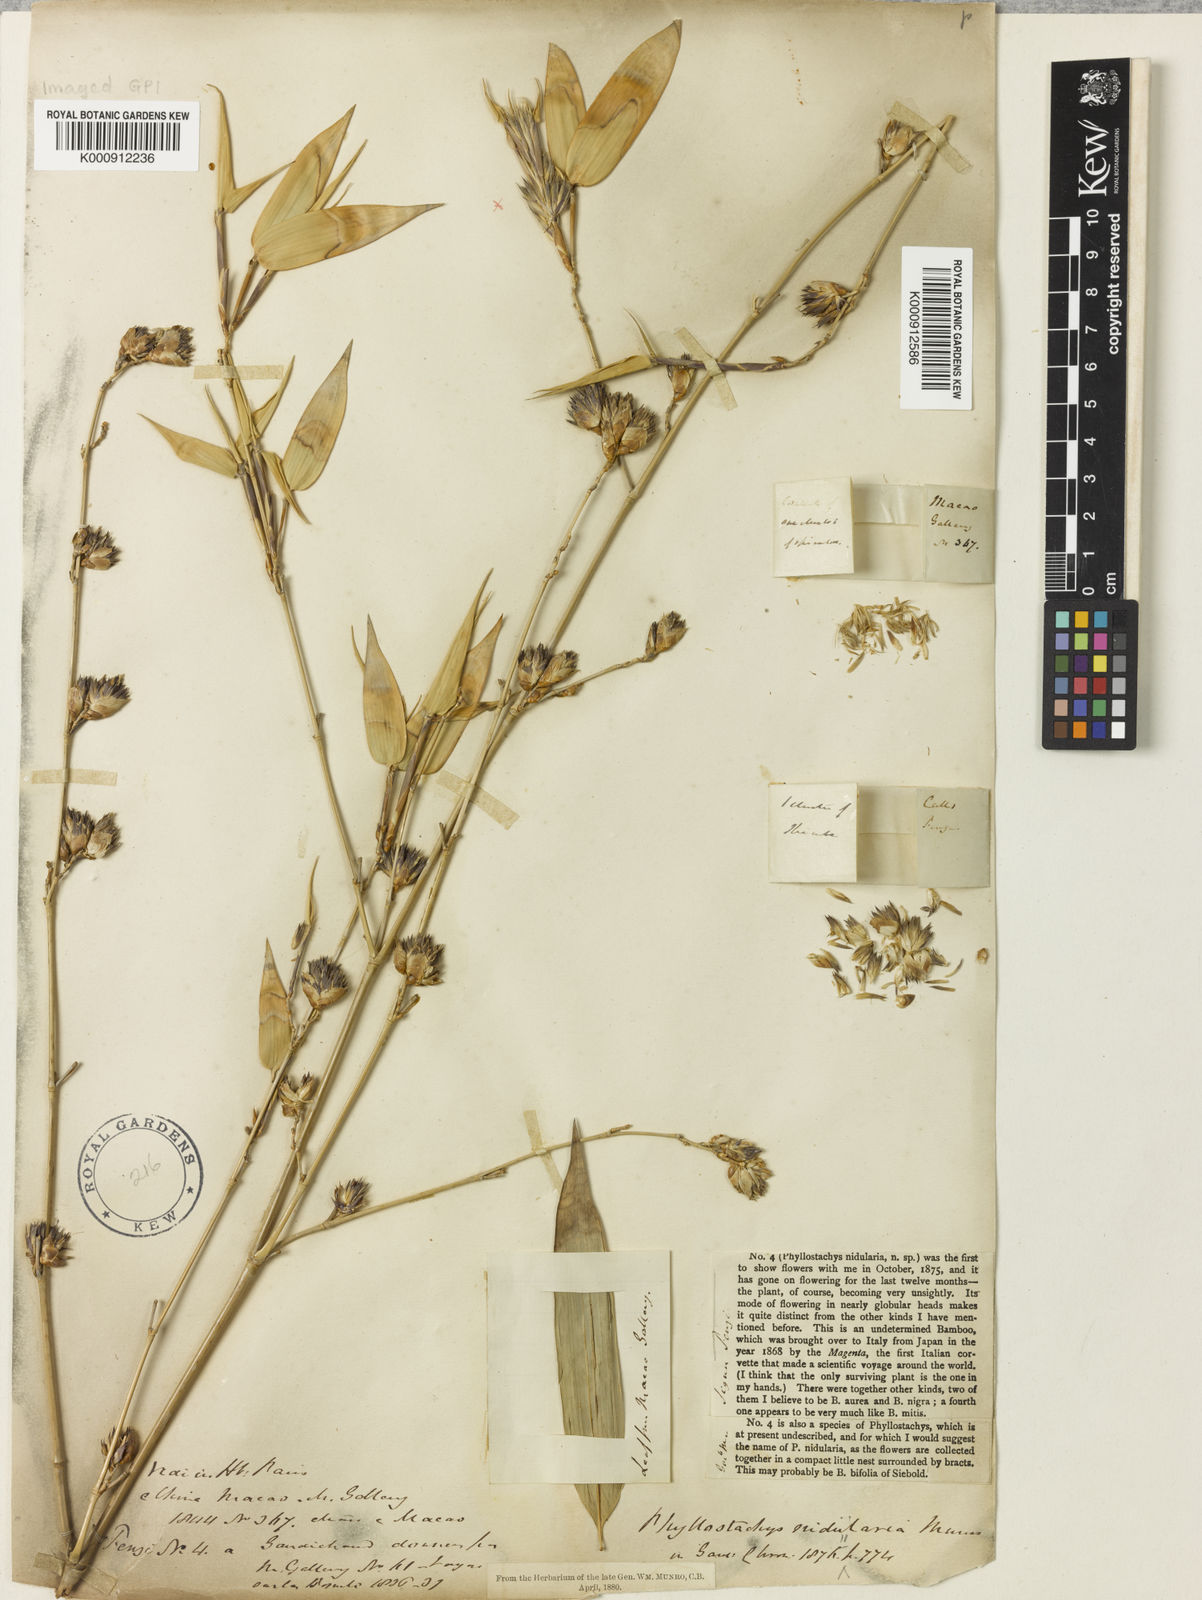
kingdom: Plantae
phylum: Tracheophyta
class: Liliopsida
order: Poales
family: Poaceae
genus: Phyllostachys
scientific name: Phyllostachys nidularia
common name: Broom bamboo
